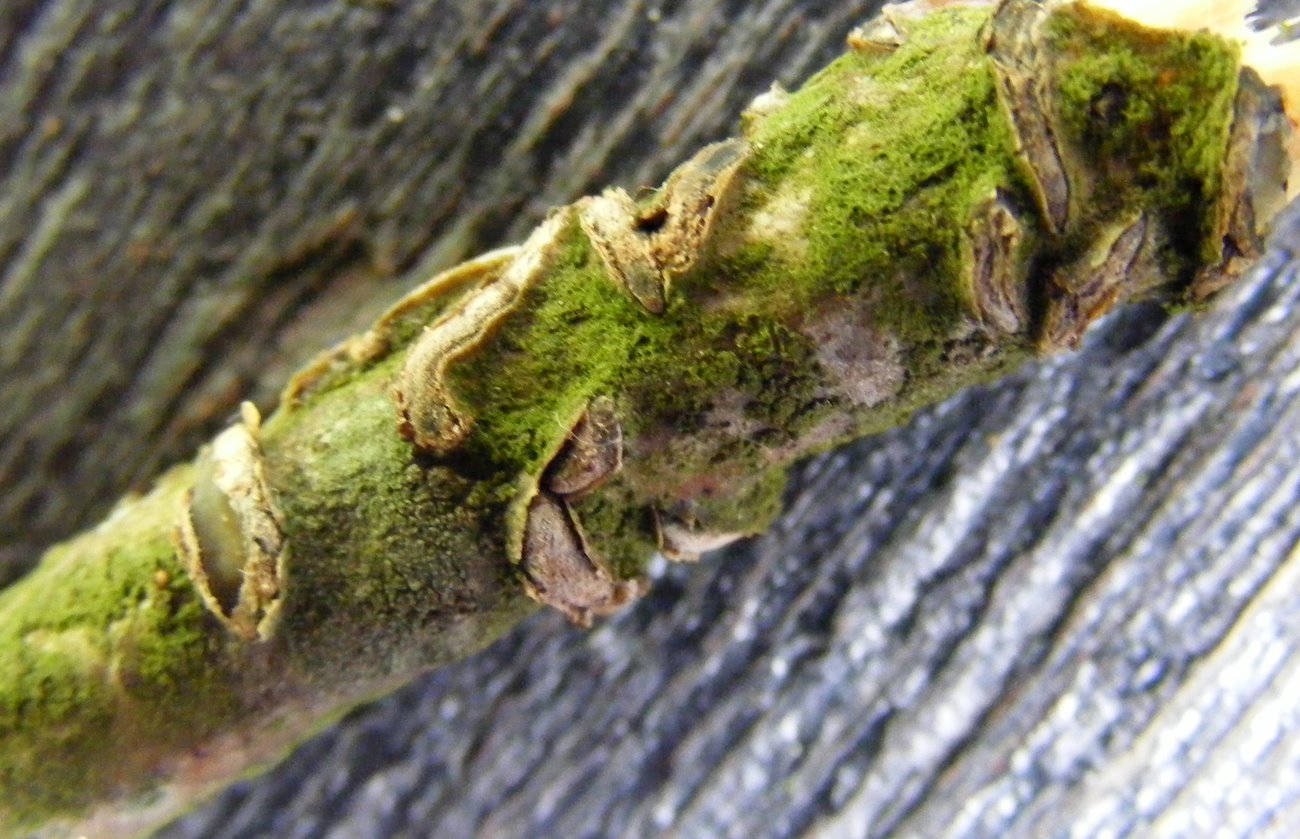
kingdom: Fungi
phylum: Ascomycota
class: Leotiomycetes
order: Rhytismatales
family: Rhytismataceae
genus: Colpoma
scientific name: Colpoma quercinum
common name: ege-sprækkeskive
